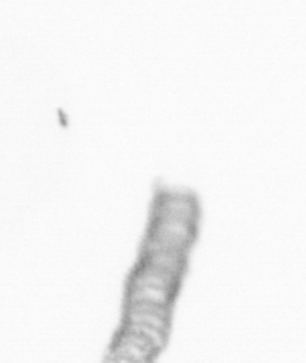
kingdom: Chromista
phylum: Ochrophyta
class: Bacillariophyceae
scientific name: Bacillariophyceae
